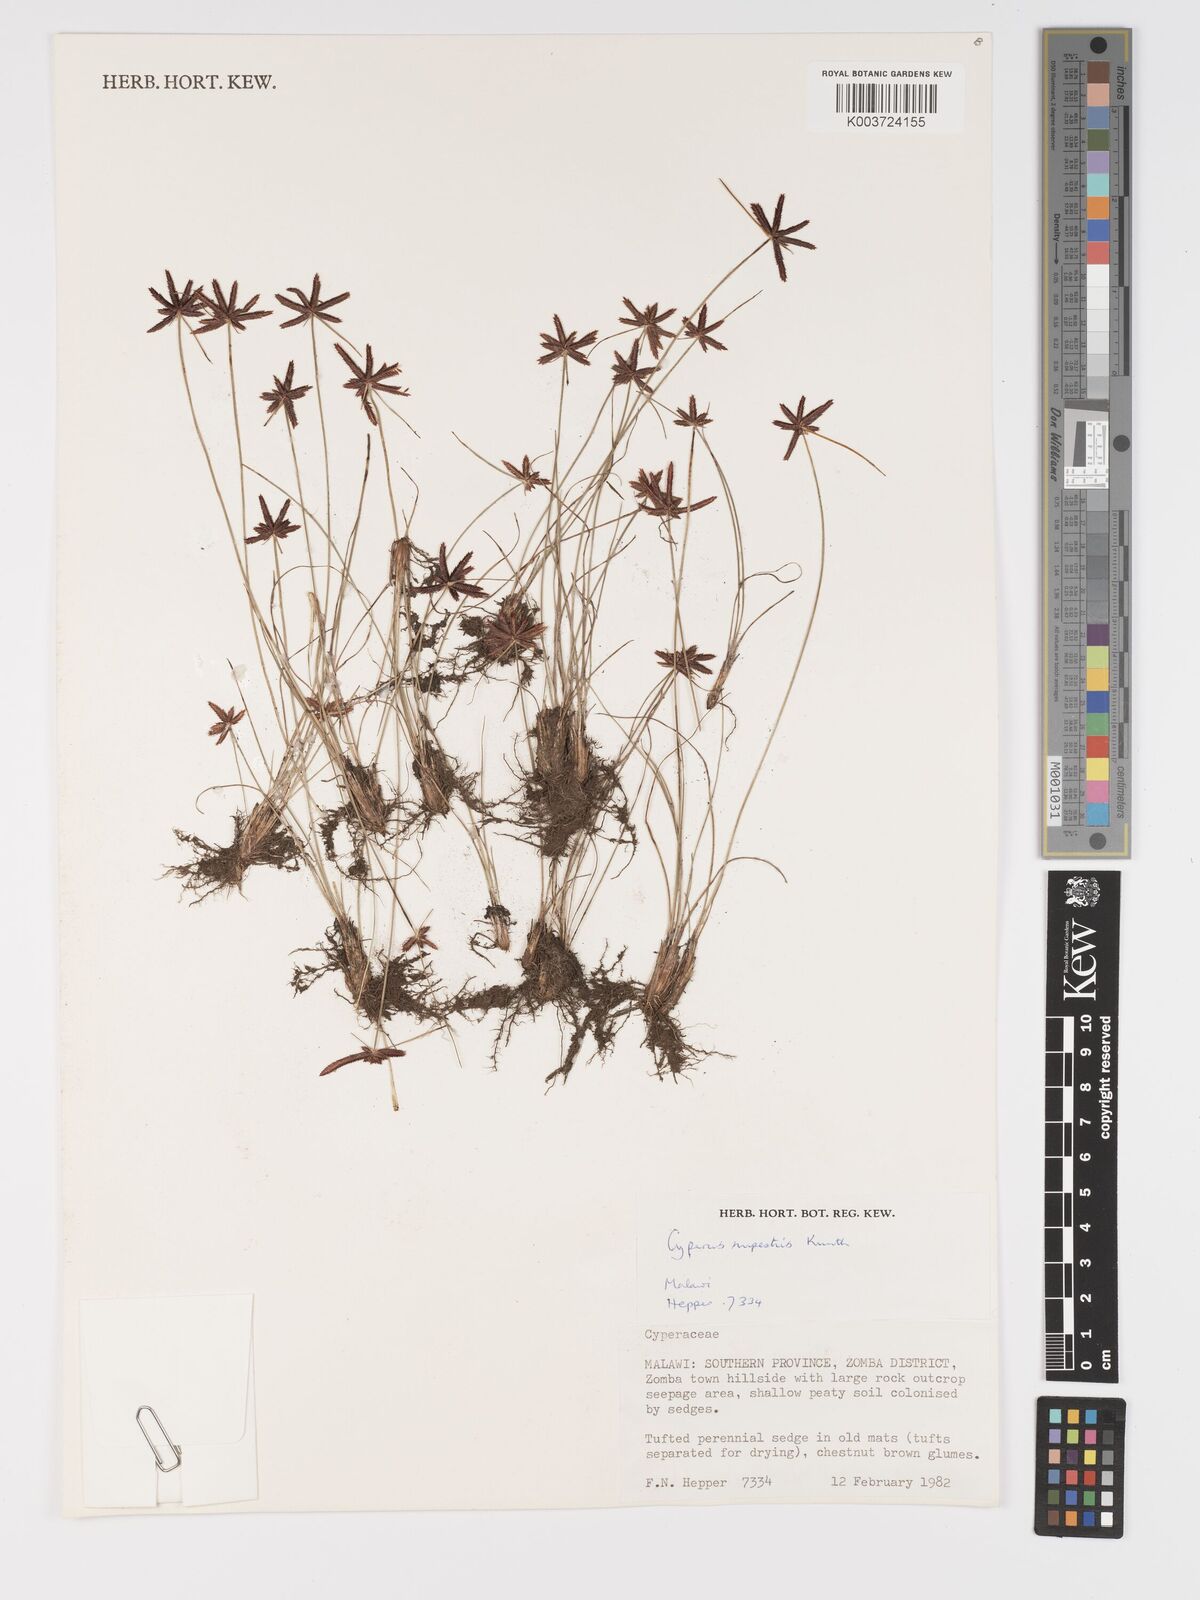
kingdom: Plantae
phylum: Tracheophyta
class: Liliopsida
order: Poales
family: Cyperaceae
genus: Cyperus
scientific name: Cyperus rupestris
